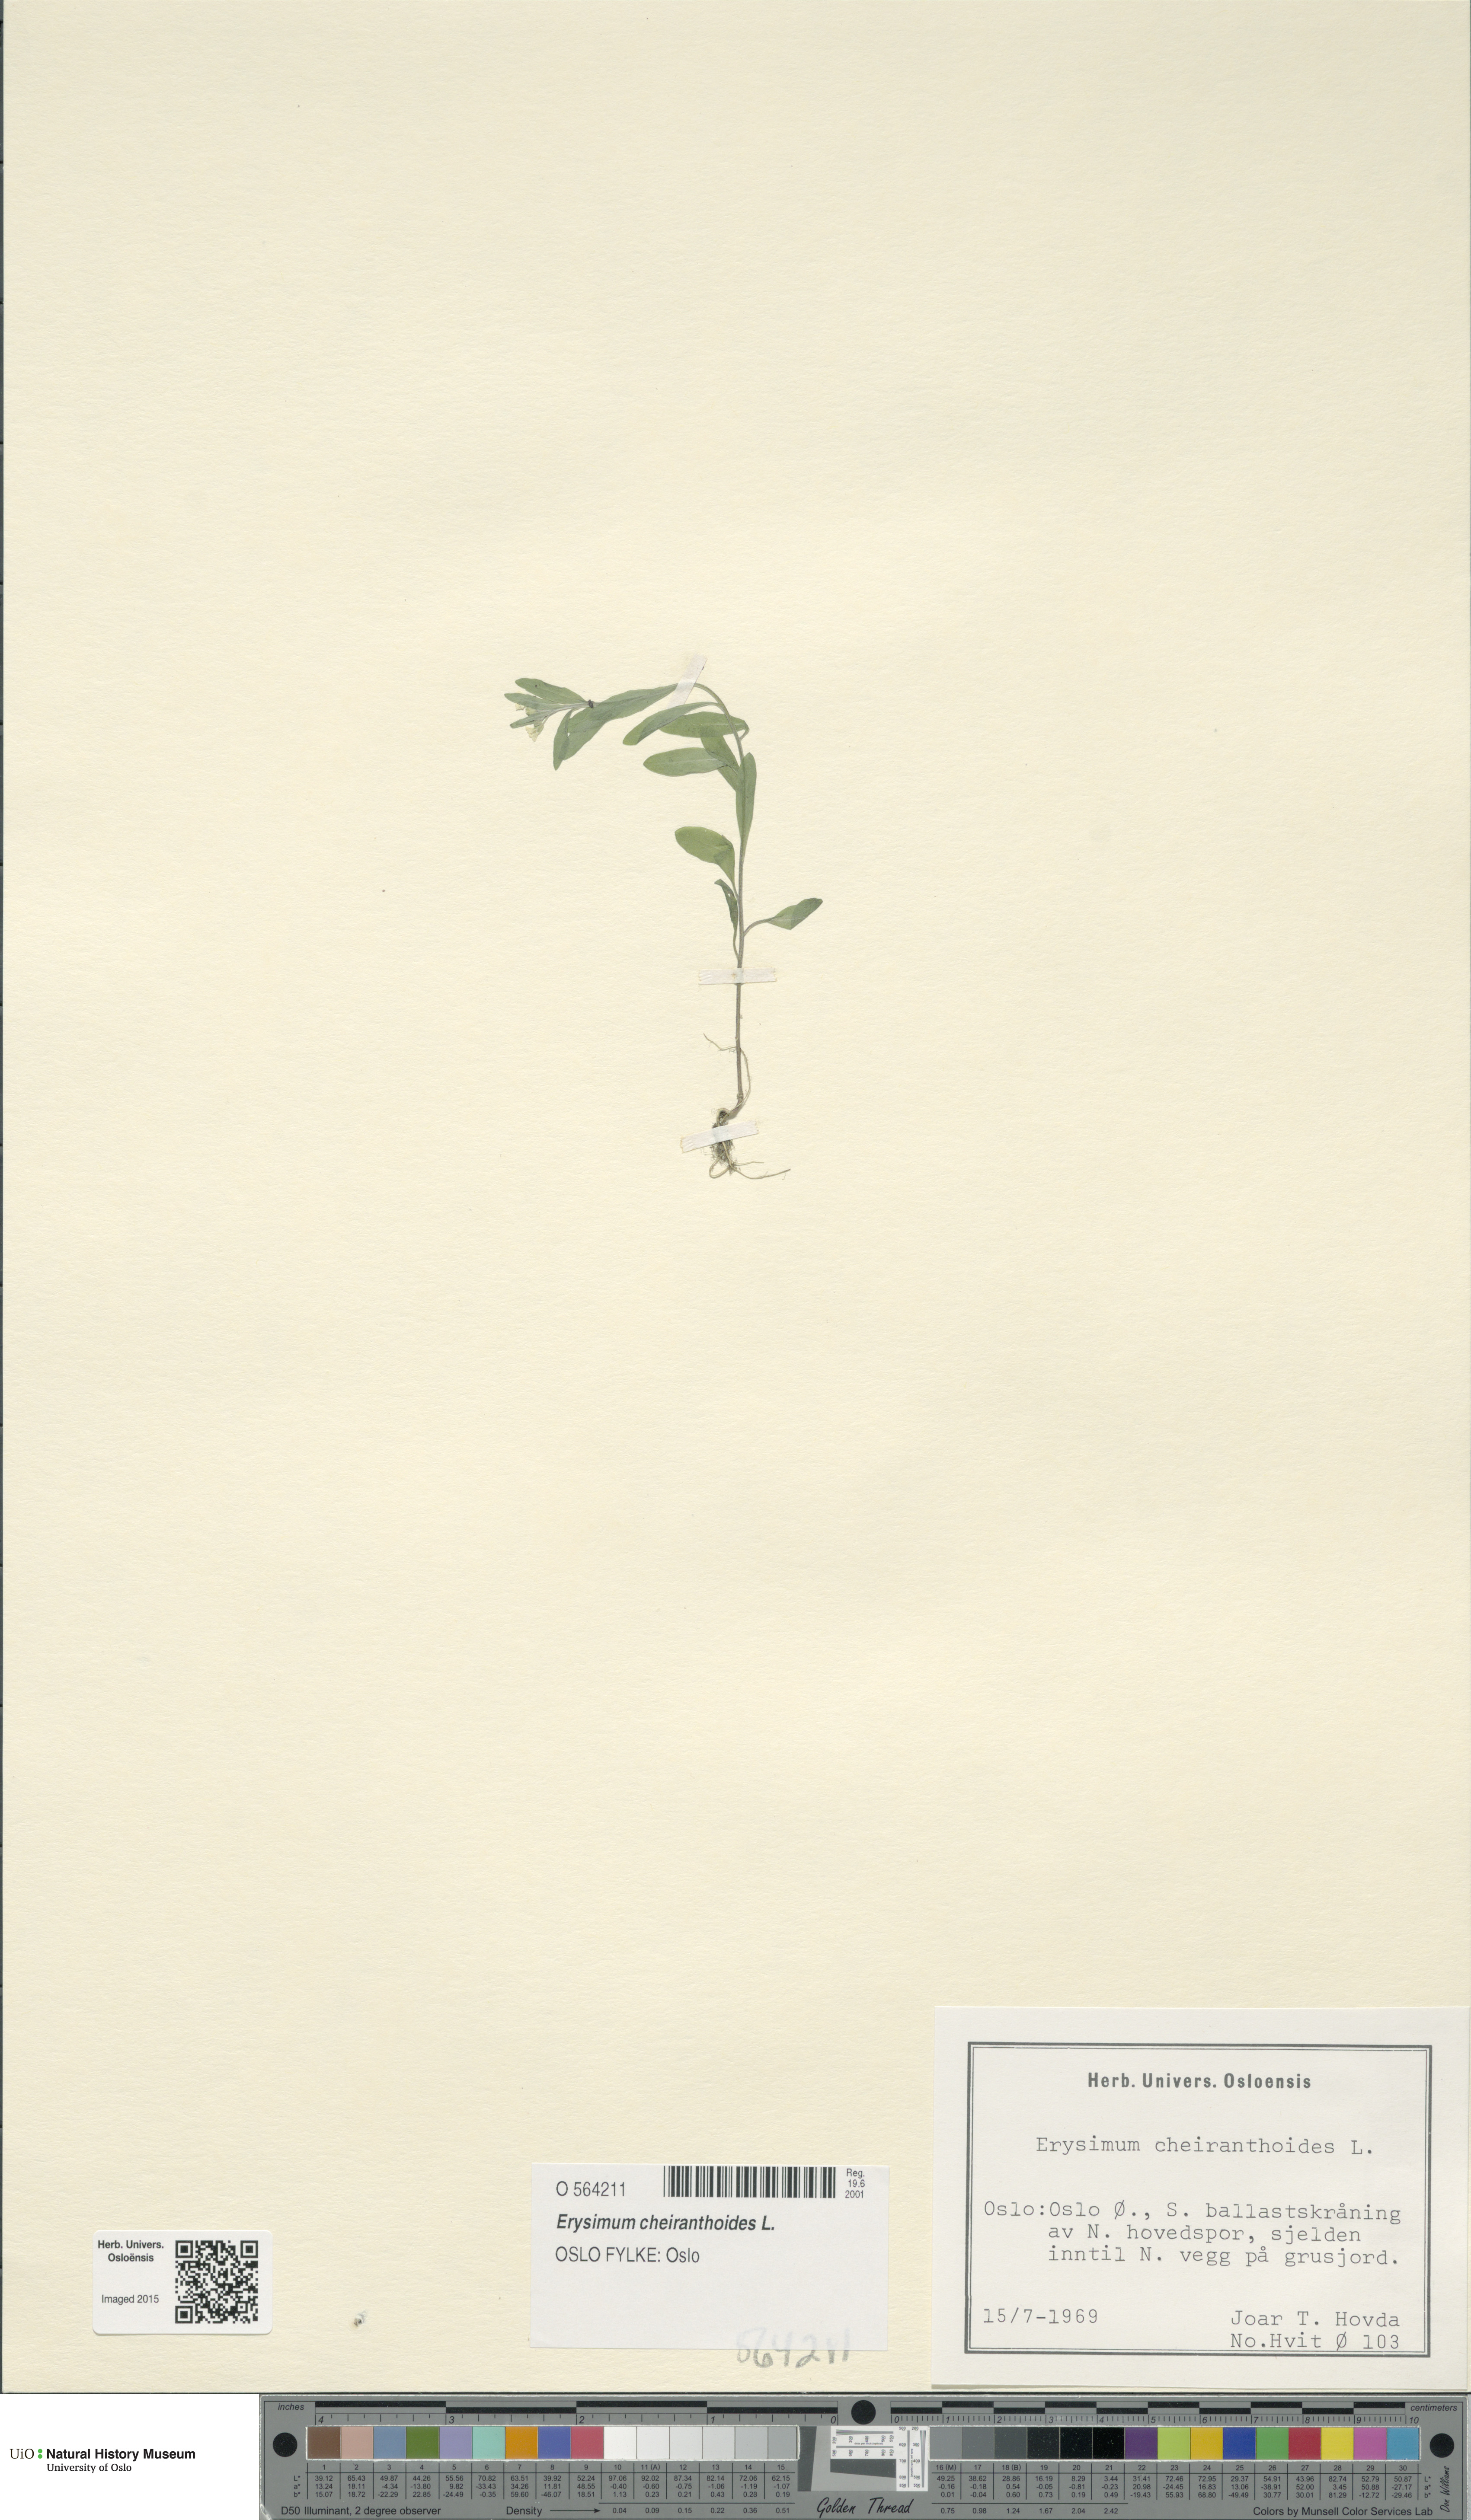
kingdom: Plantae
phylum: Tracheophyta
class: Magnoliopsida
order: Brassicales
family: Brassicaceae
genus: Erysimum
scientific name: Erysimum cheiranthoides
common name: Treacle mustard
